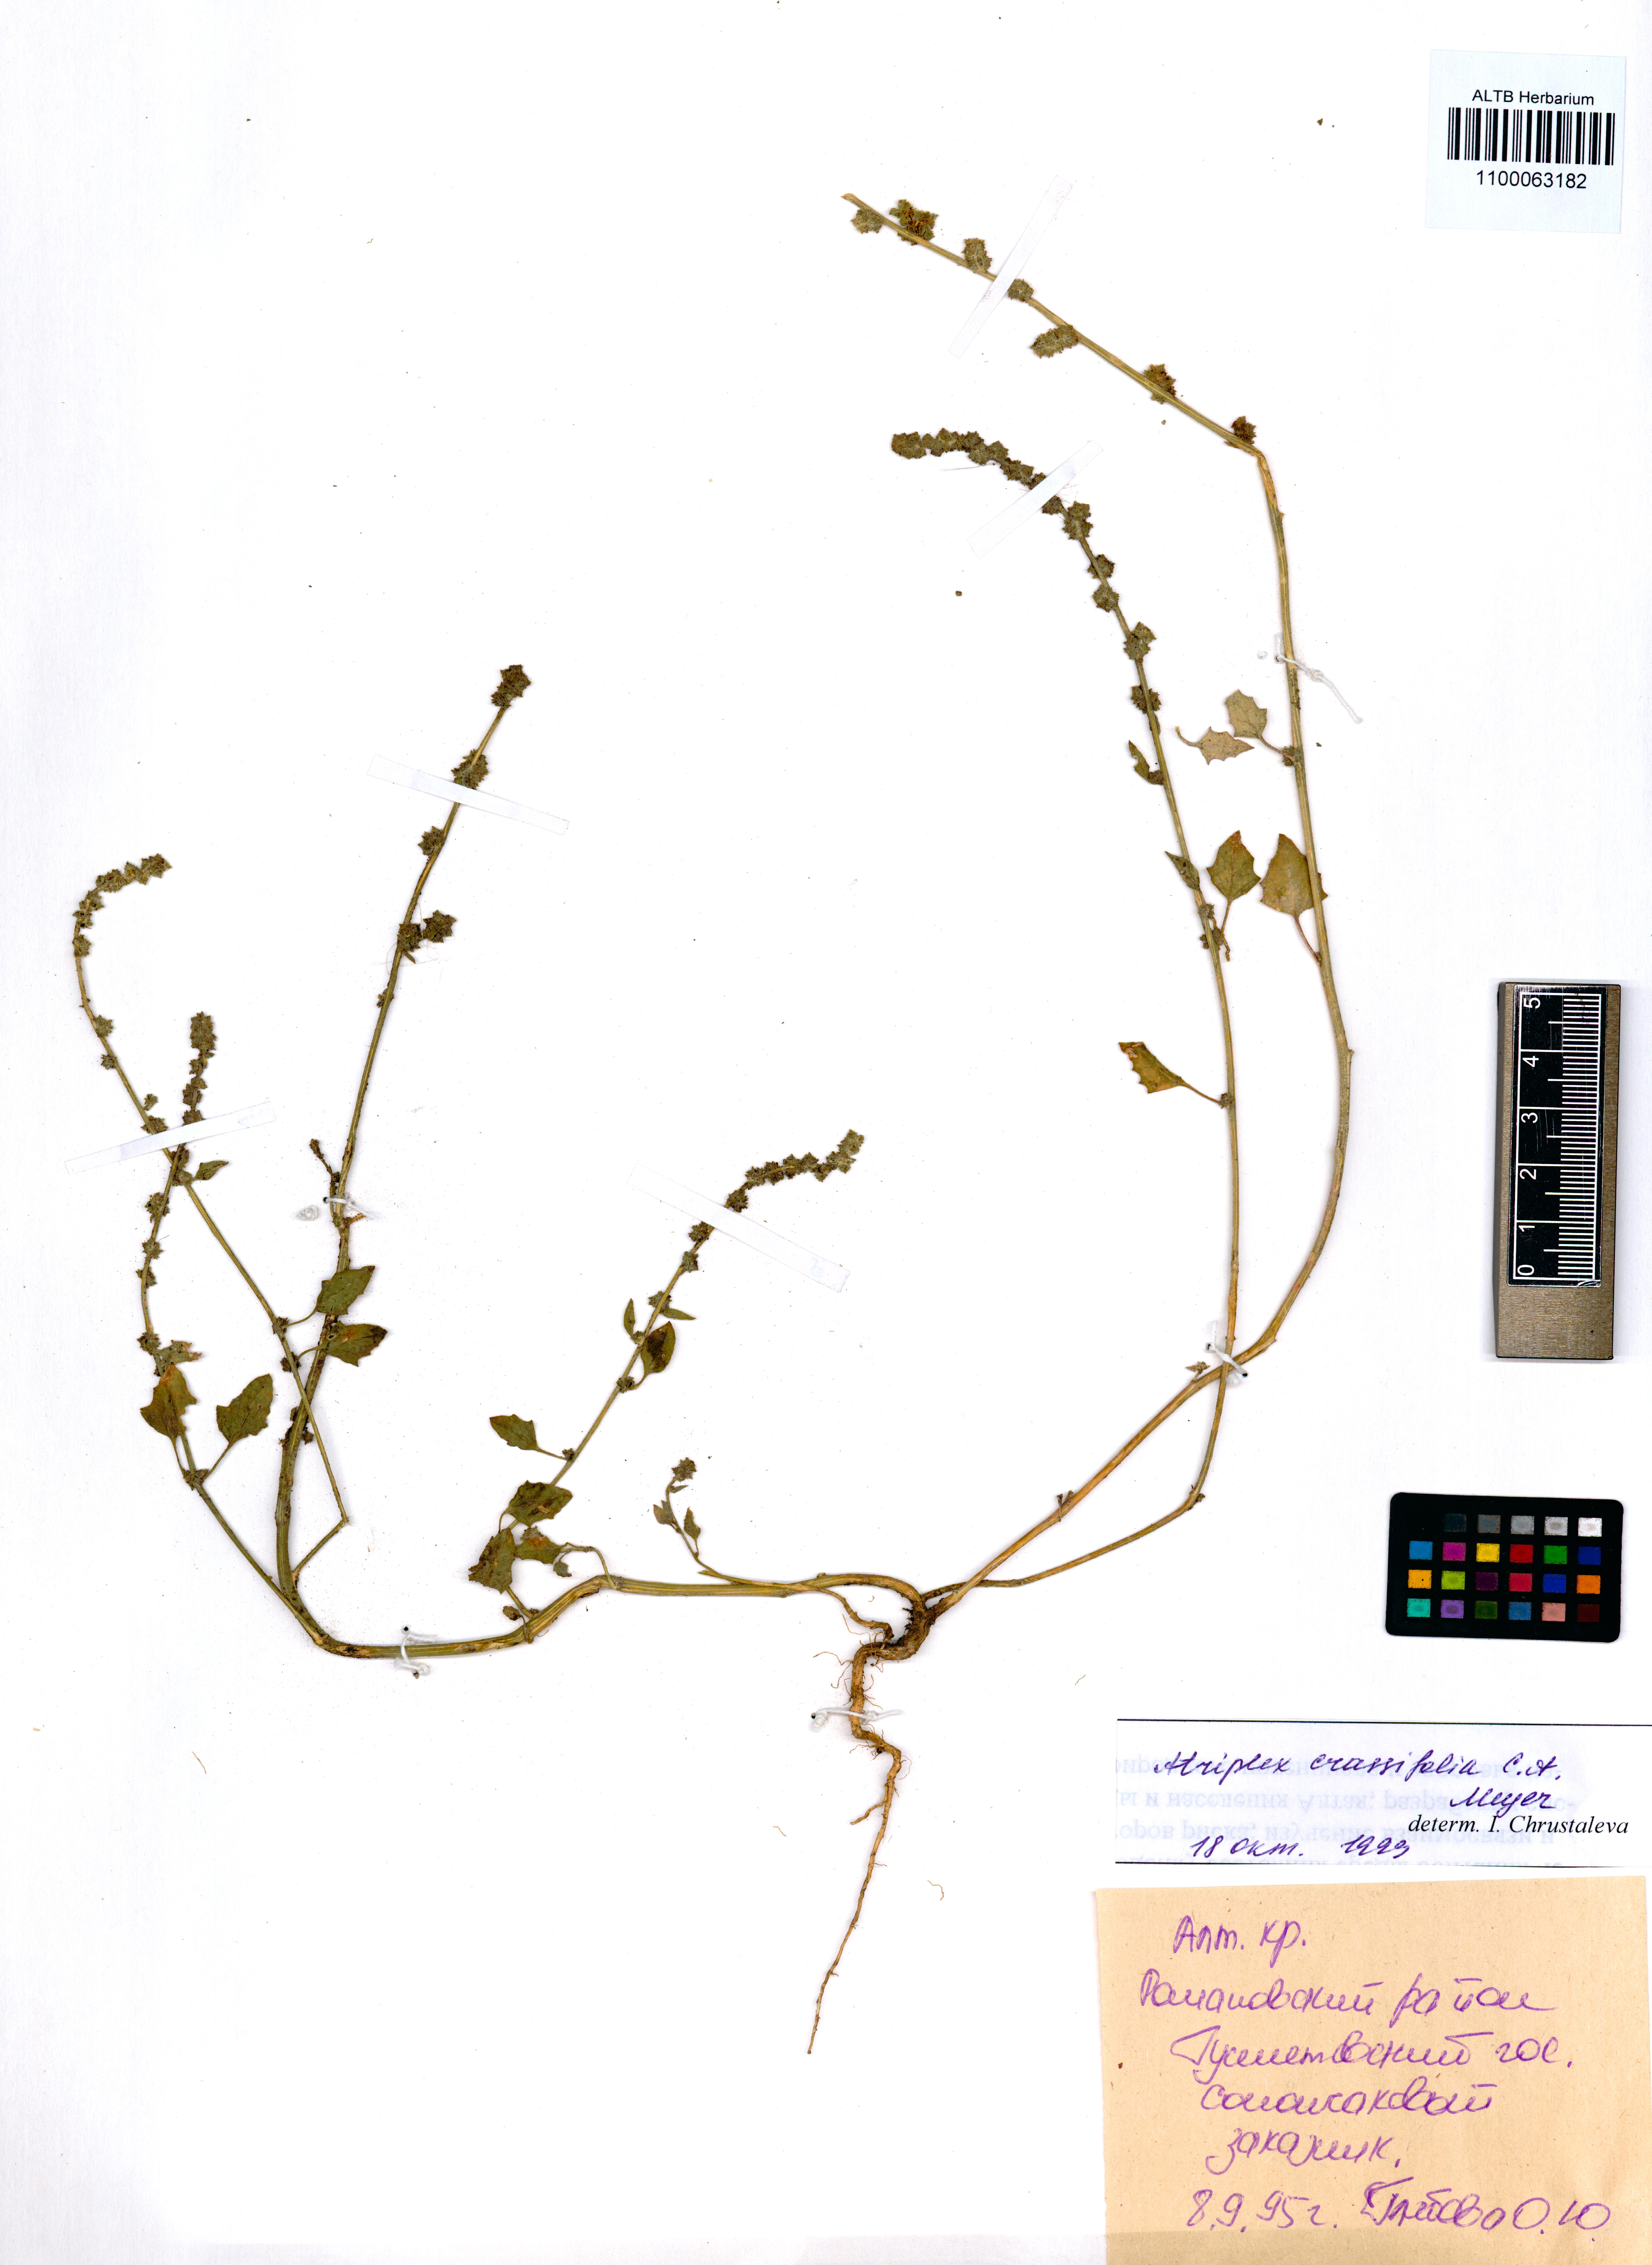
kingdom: Plantae
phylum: Tracheophyta
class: Magnoliopsida
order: Caryophyllales
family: Amaranthaceae
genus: Atriplex
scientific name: Atriplex crassifolia
